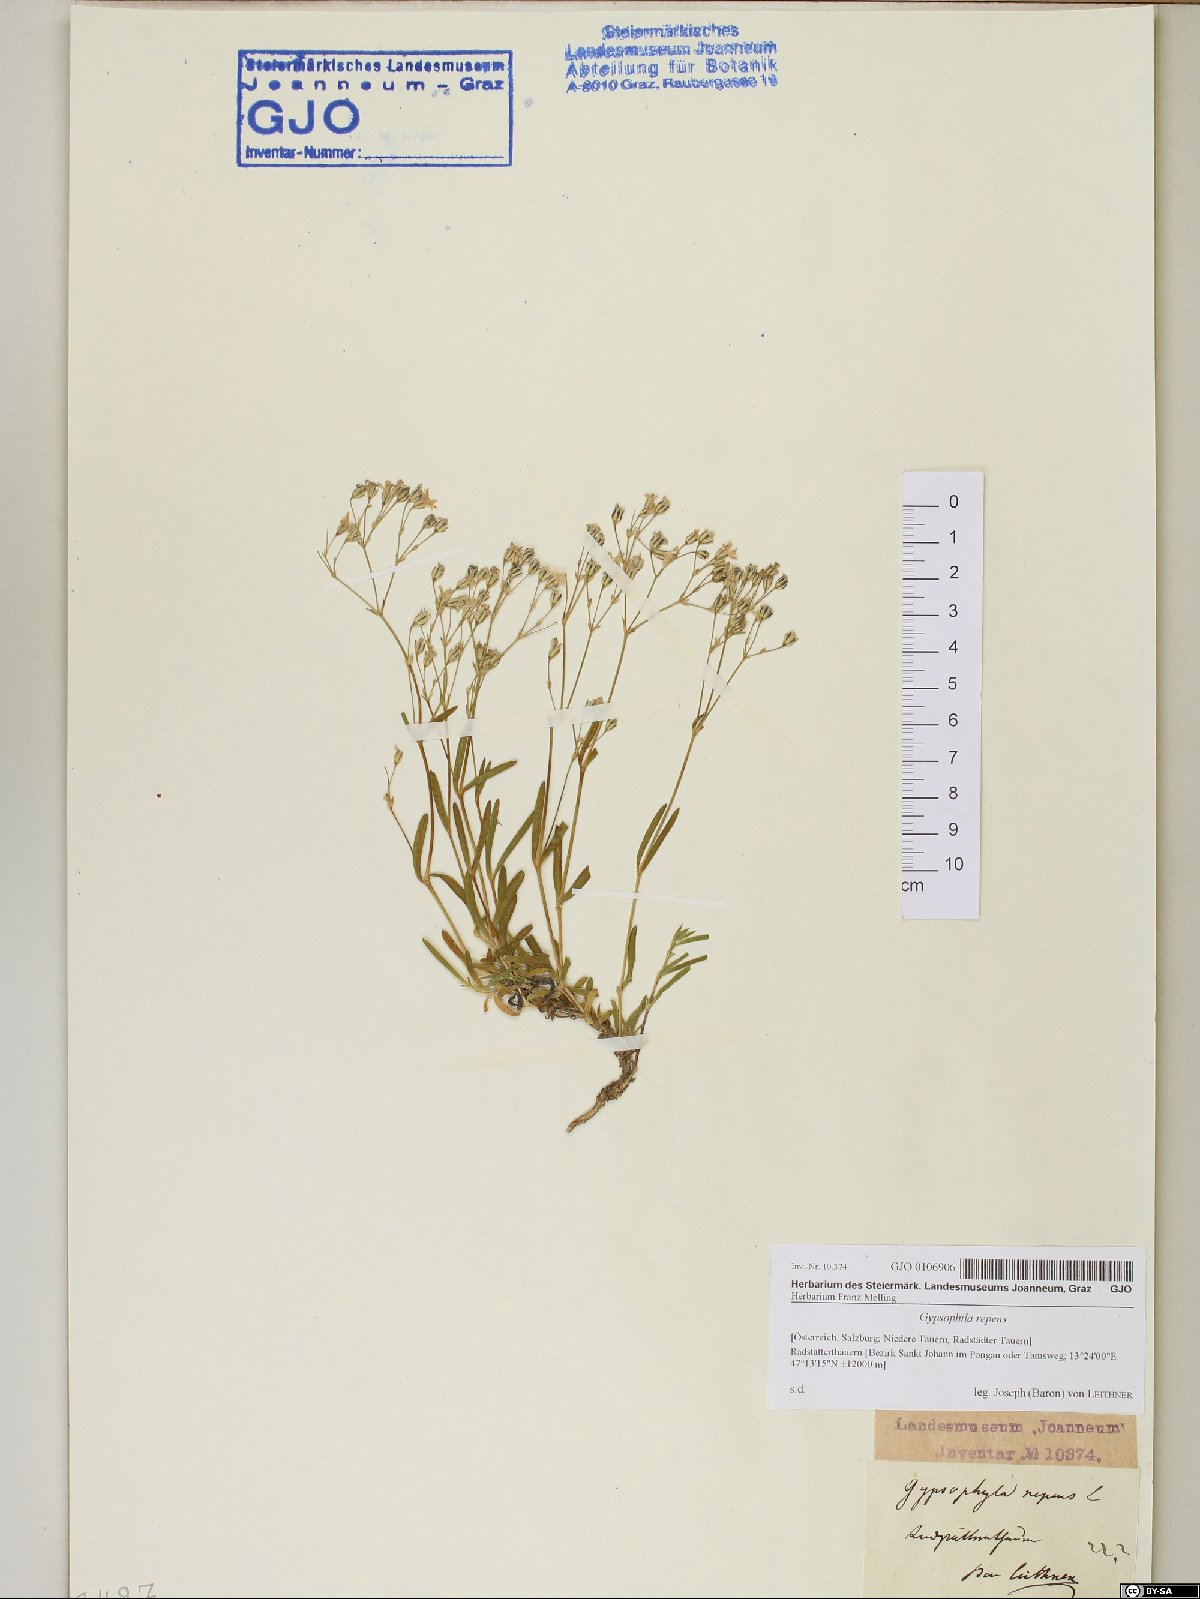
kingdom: Plantae
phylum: Tracheophyta
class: Magnoliopsida
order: Caryophyllales
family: Caryophyllaceae
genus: Gypsophila
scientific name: Gypsophila repens
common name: Creeping baby's-breath
